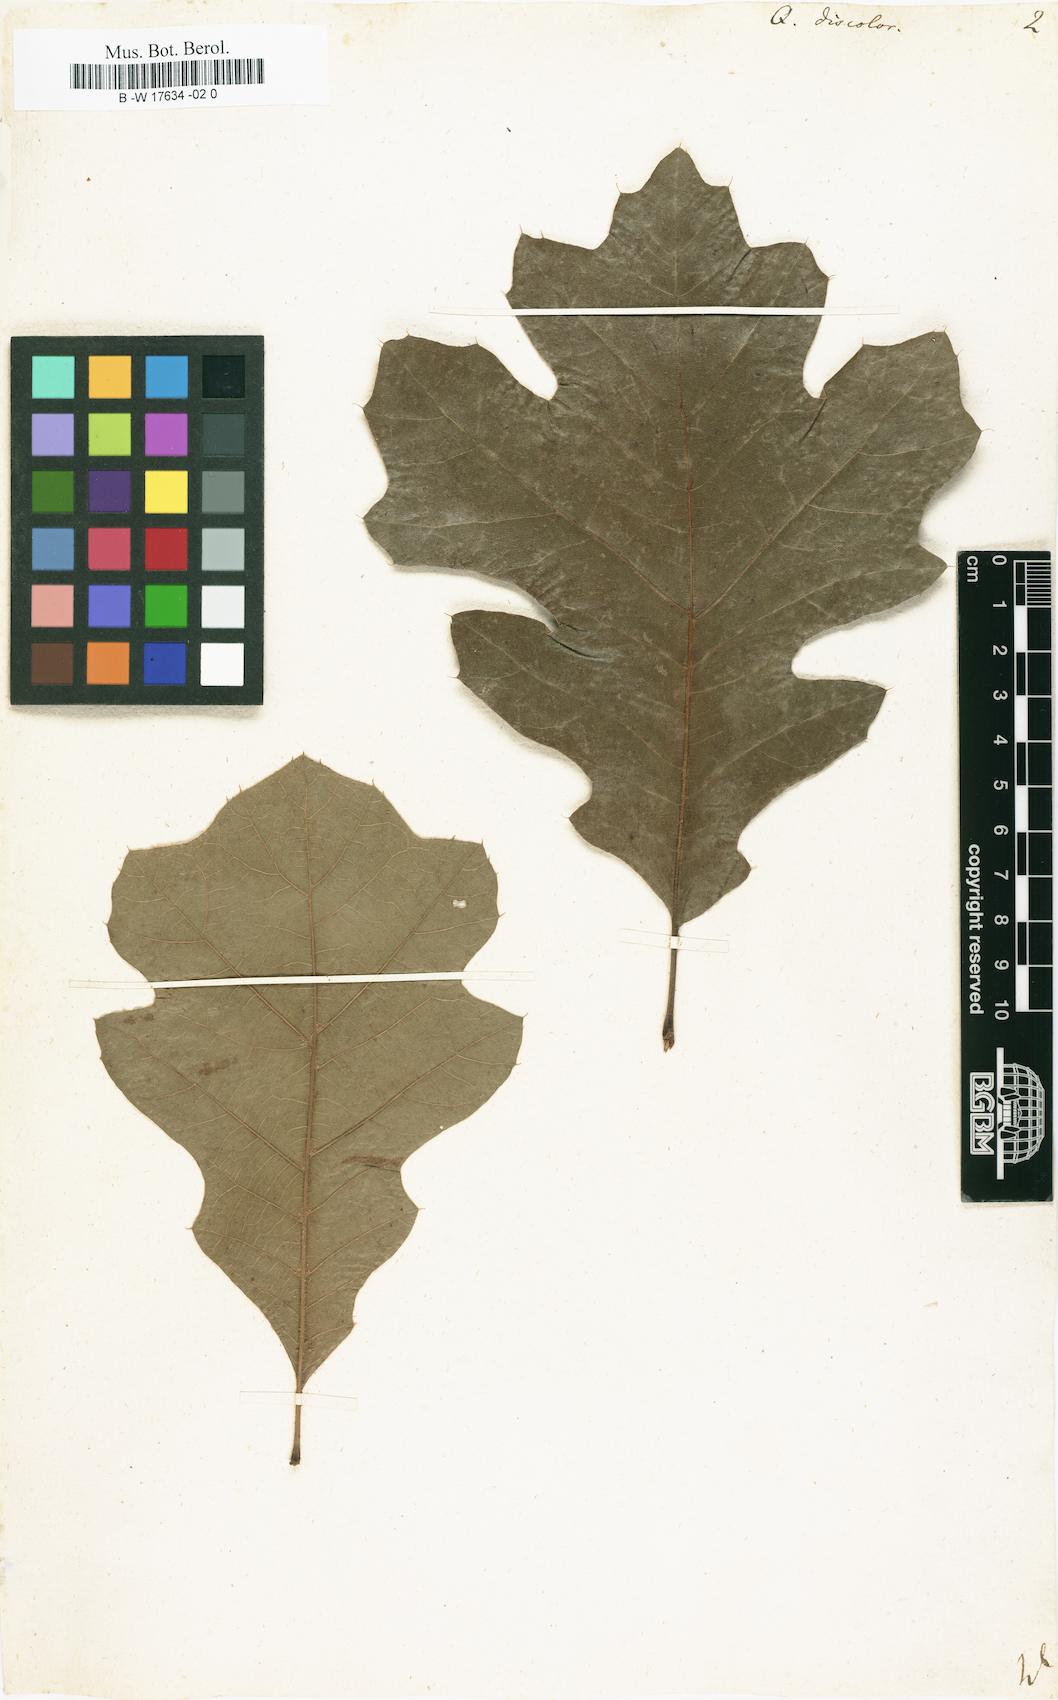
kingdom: Plantae
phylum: Tracheophyta
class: Magnoliopsida
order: Fagales
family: Fagaceae
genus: Quercus
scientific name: Quercus velutina
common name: Black oak
